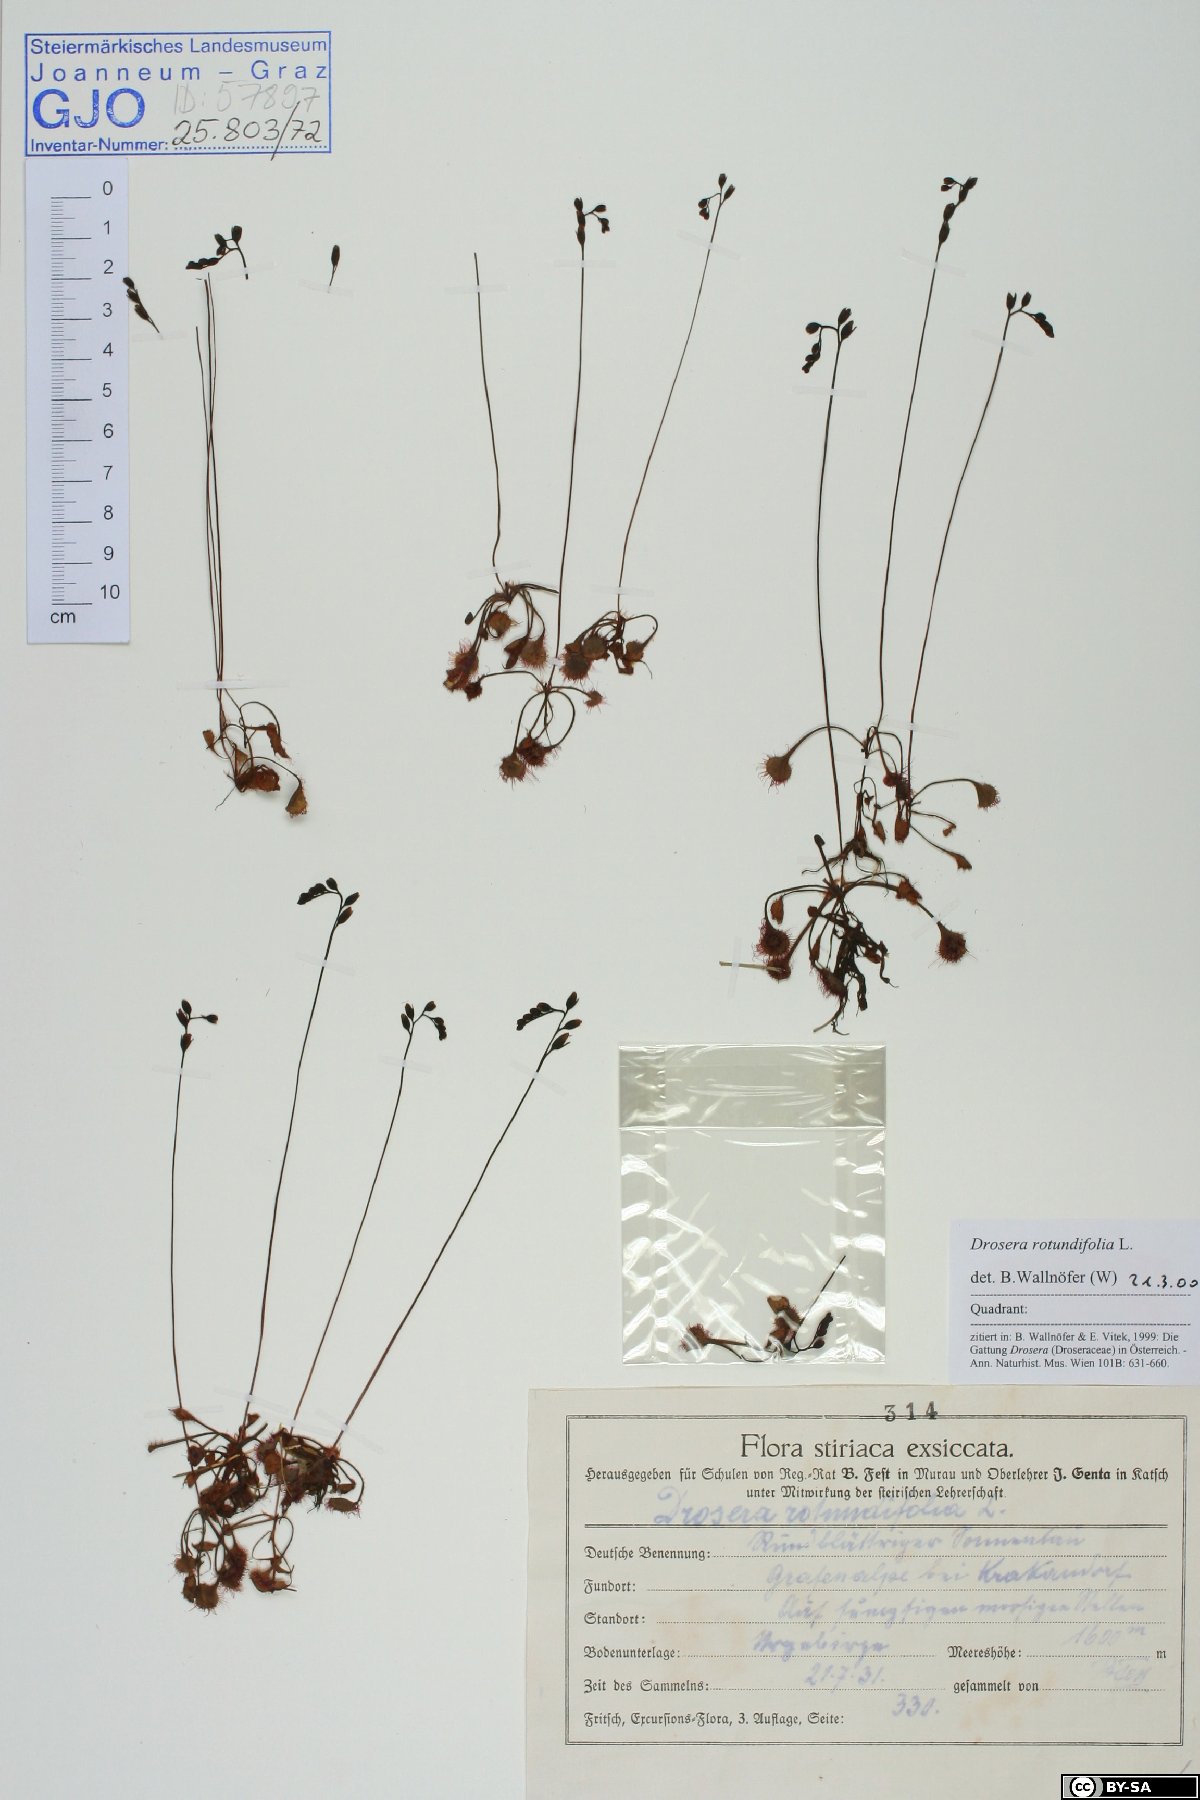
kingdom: Plantae
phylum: Tracheophyta
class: Magnoliopsida
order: Caryophyllales
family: Droseraceae
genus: Drosera
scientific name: Drosera rotundifolia
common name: Round-leaved sundew
